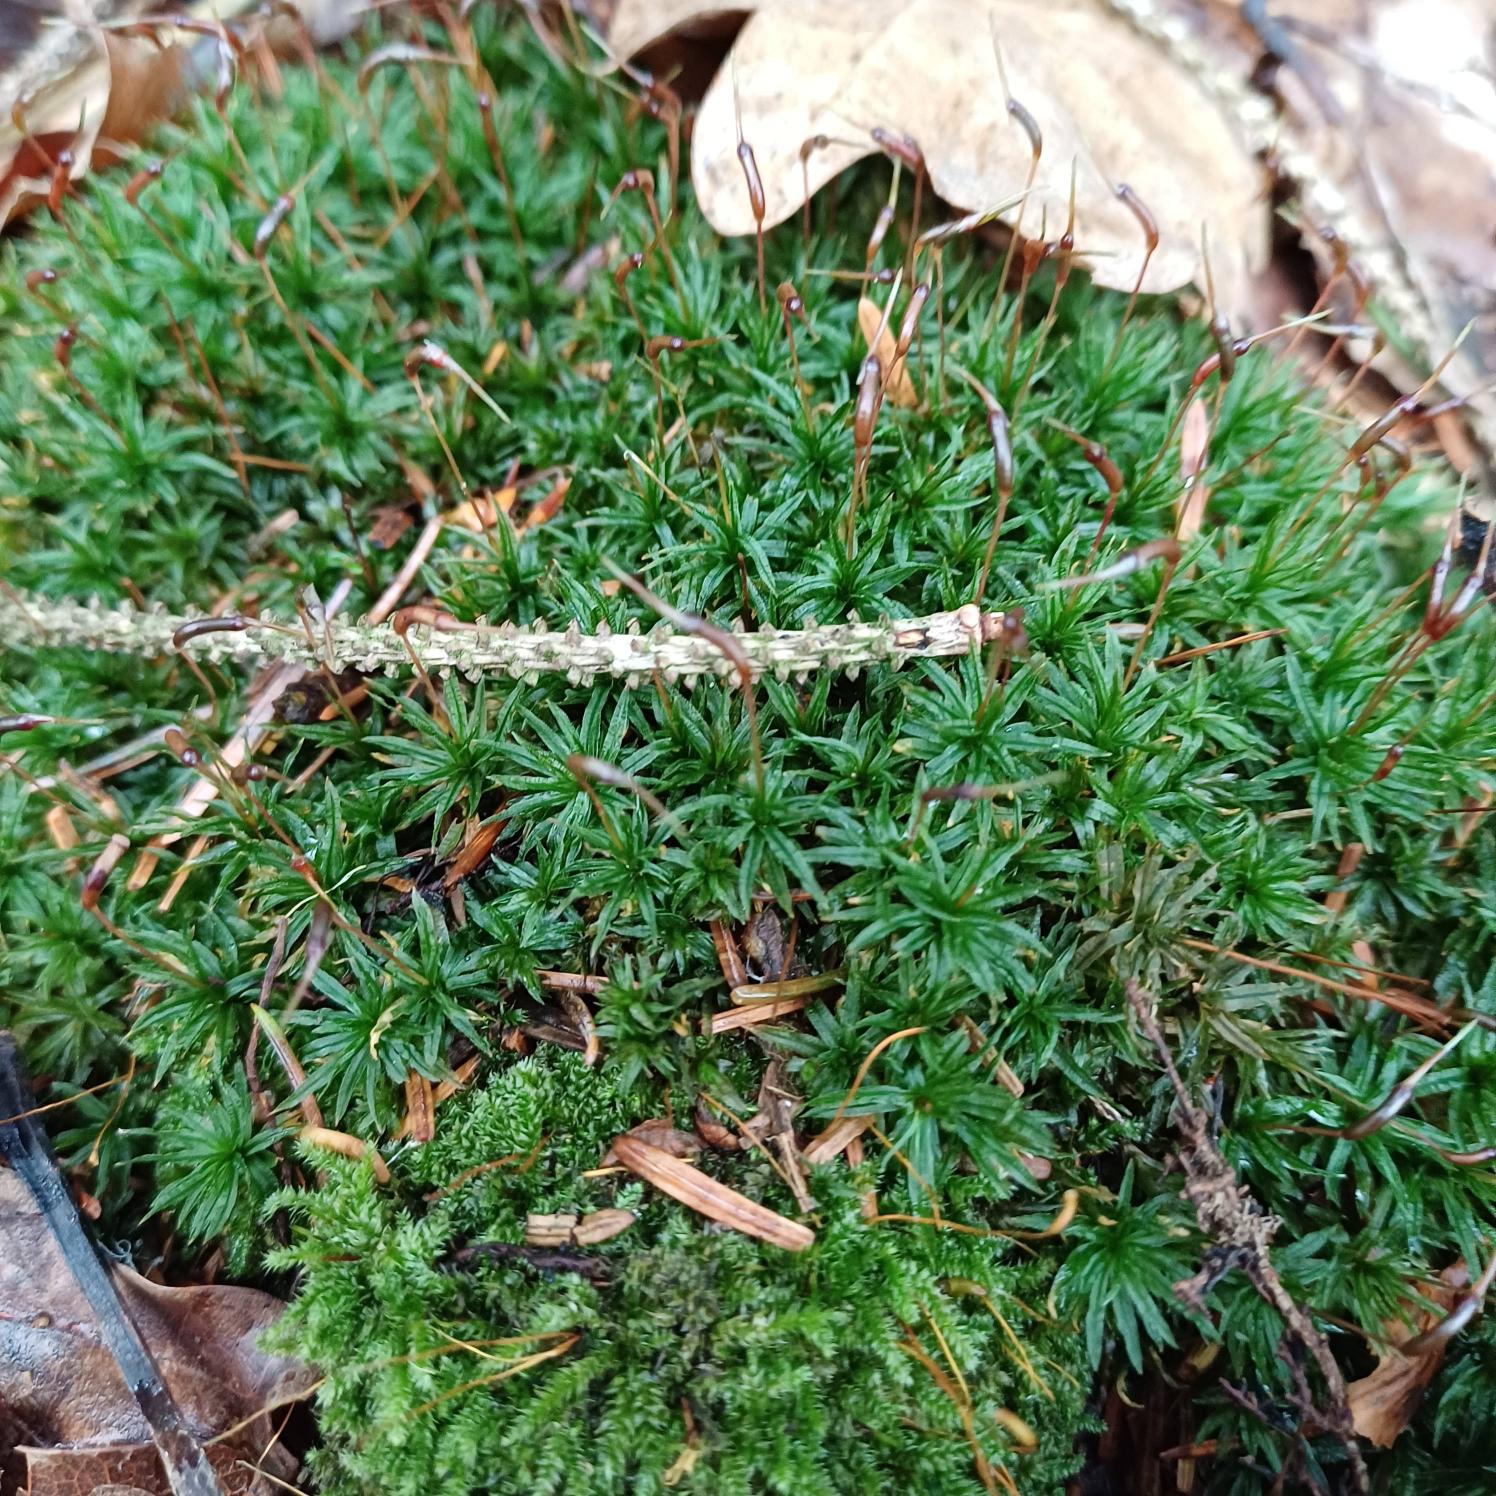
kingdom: Plantae
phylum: Bryophyta
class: Polytrichopsida
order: Polytrichales
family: Polytrichaceae
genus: Atrichum
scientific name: Atrichum undulatum
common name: Bølget katrinemos
